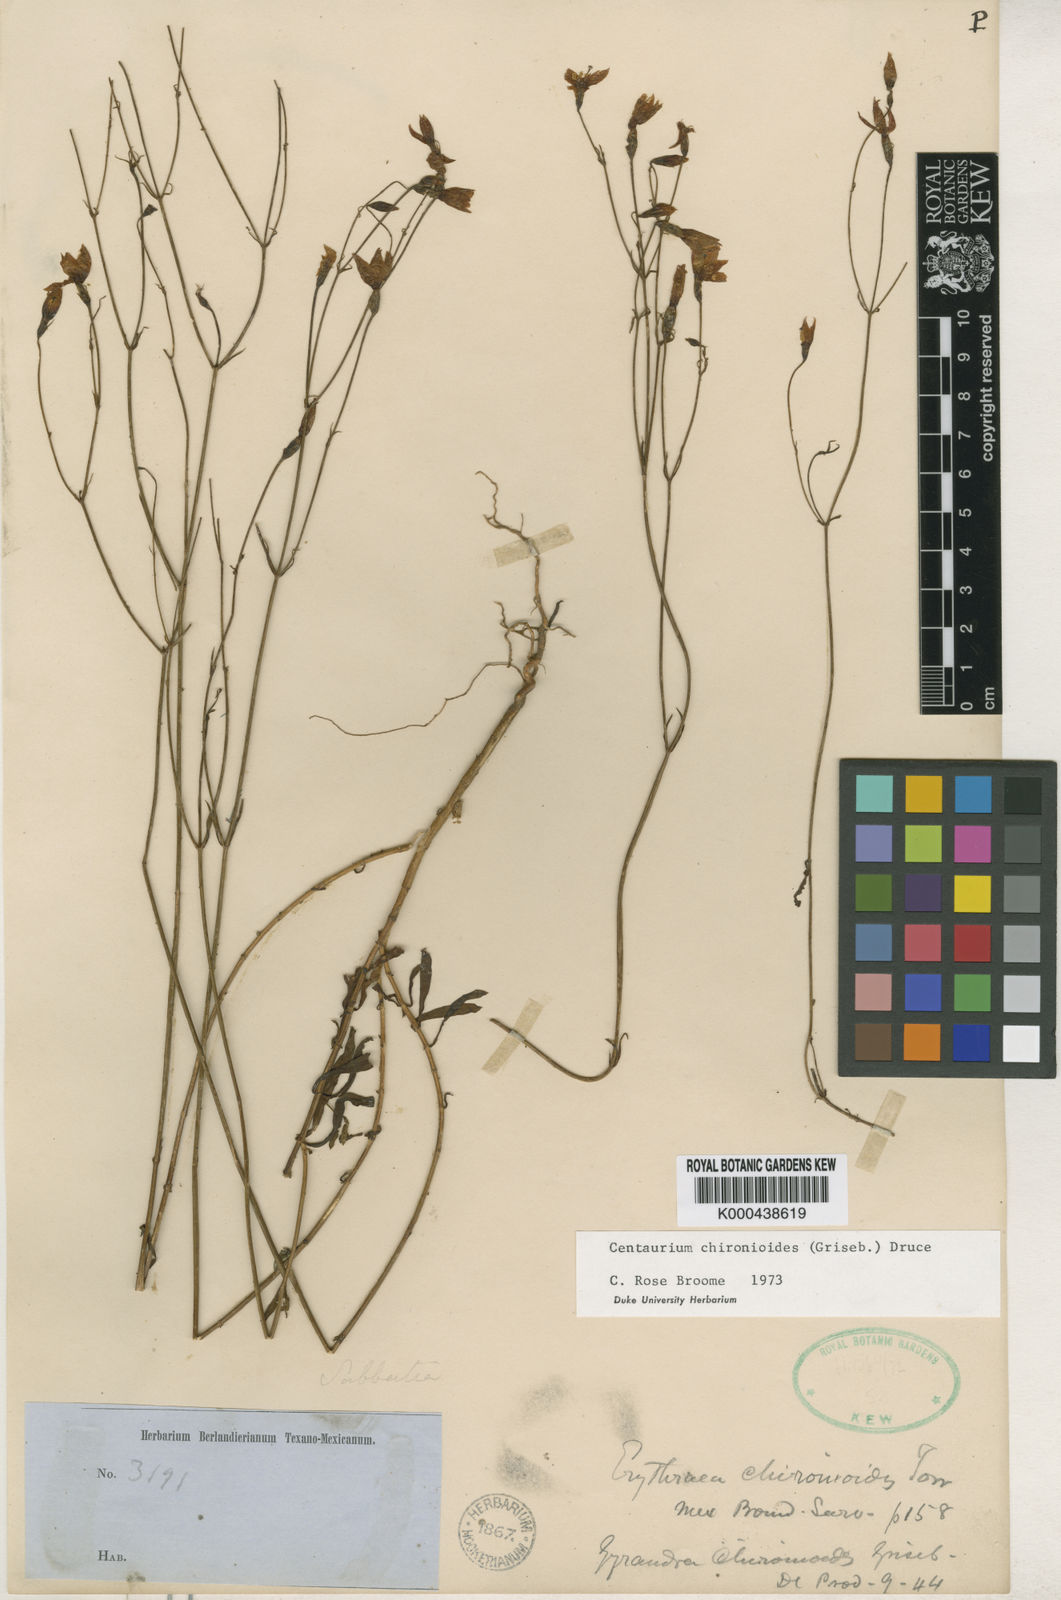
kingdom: Plantae
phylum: Tracheophyta
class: Magnoliopsida
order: Gentianales
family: Gentianaceae
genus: Zeltnera
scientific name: Zeltnera calycosa
